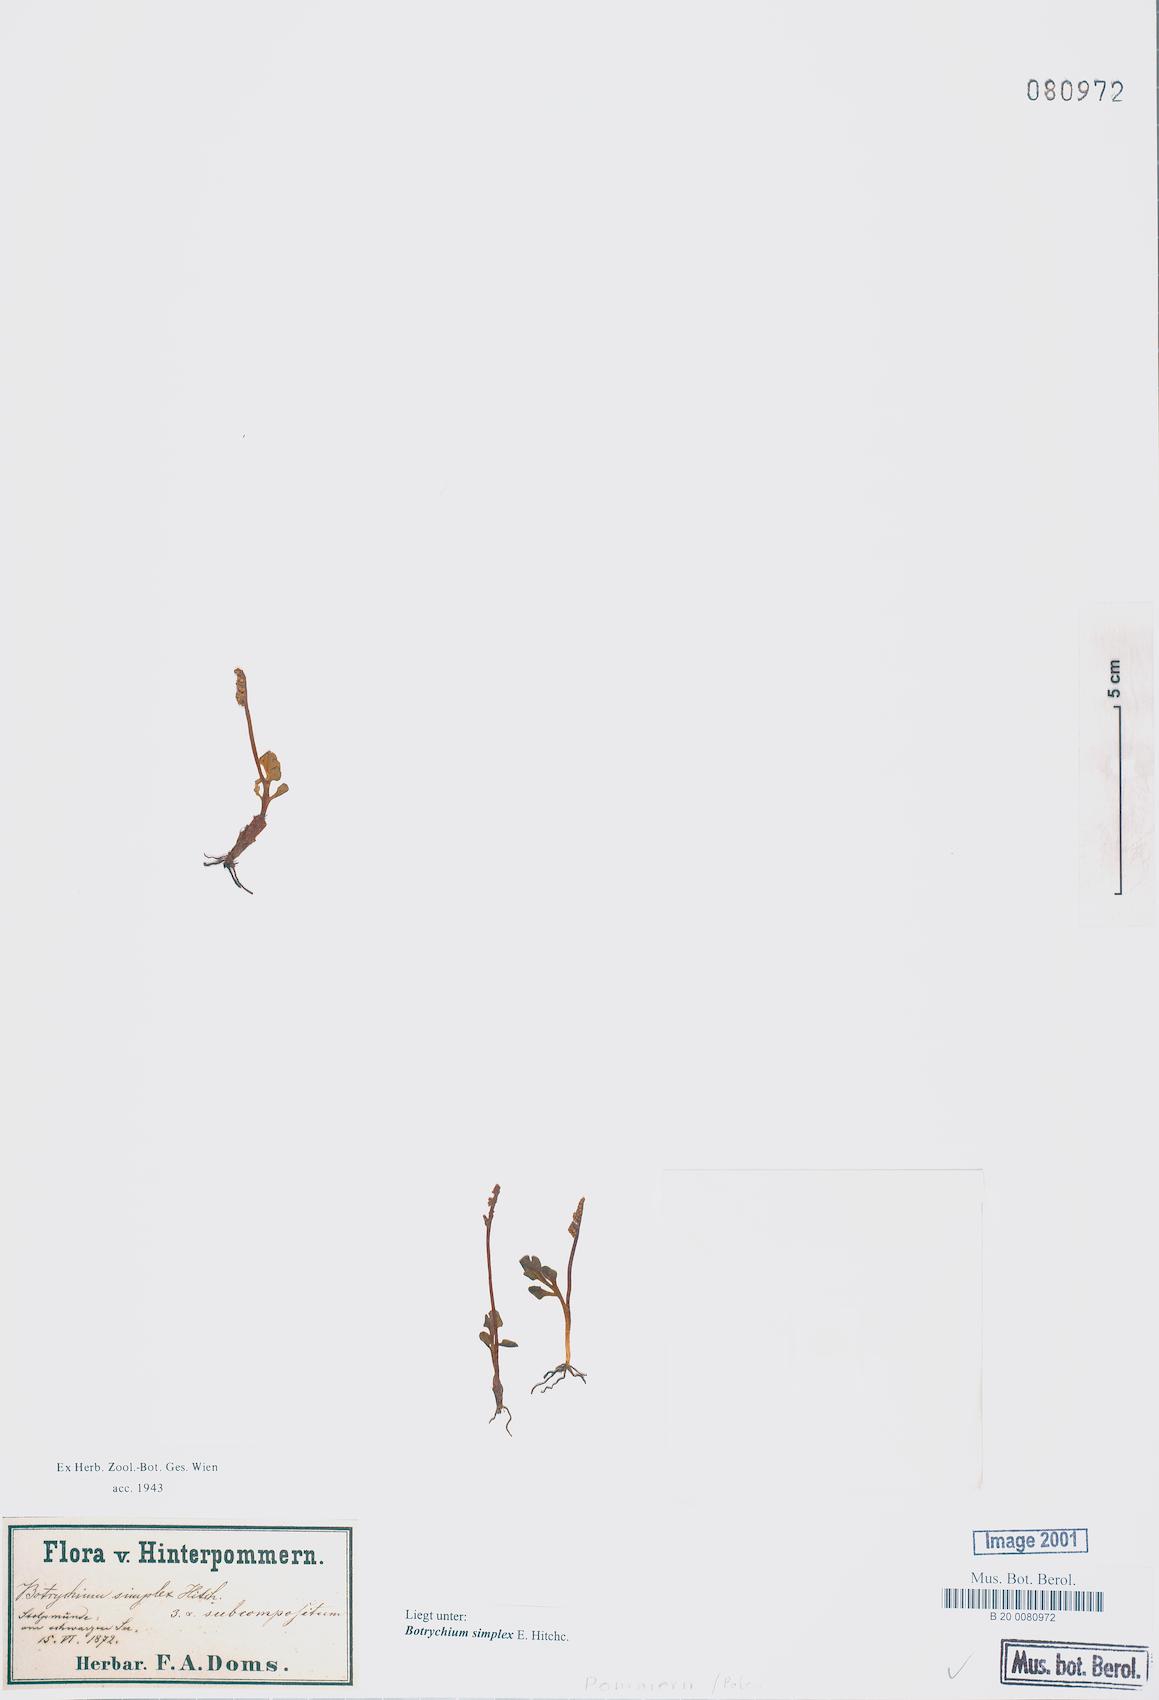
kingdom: Plantae
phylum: Tracheophyta
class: Polypodiopsida
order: Ophioglossales
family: Ophioglossaceae
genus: Botrychium
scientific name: Botrychium simplex
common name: Least moonwort
